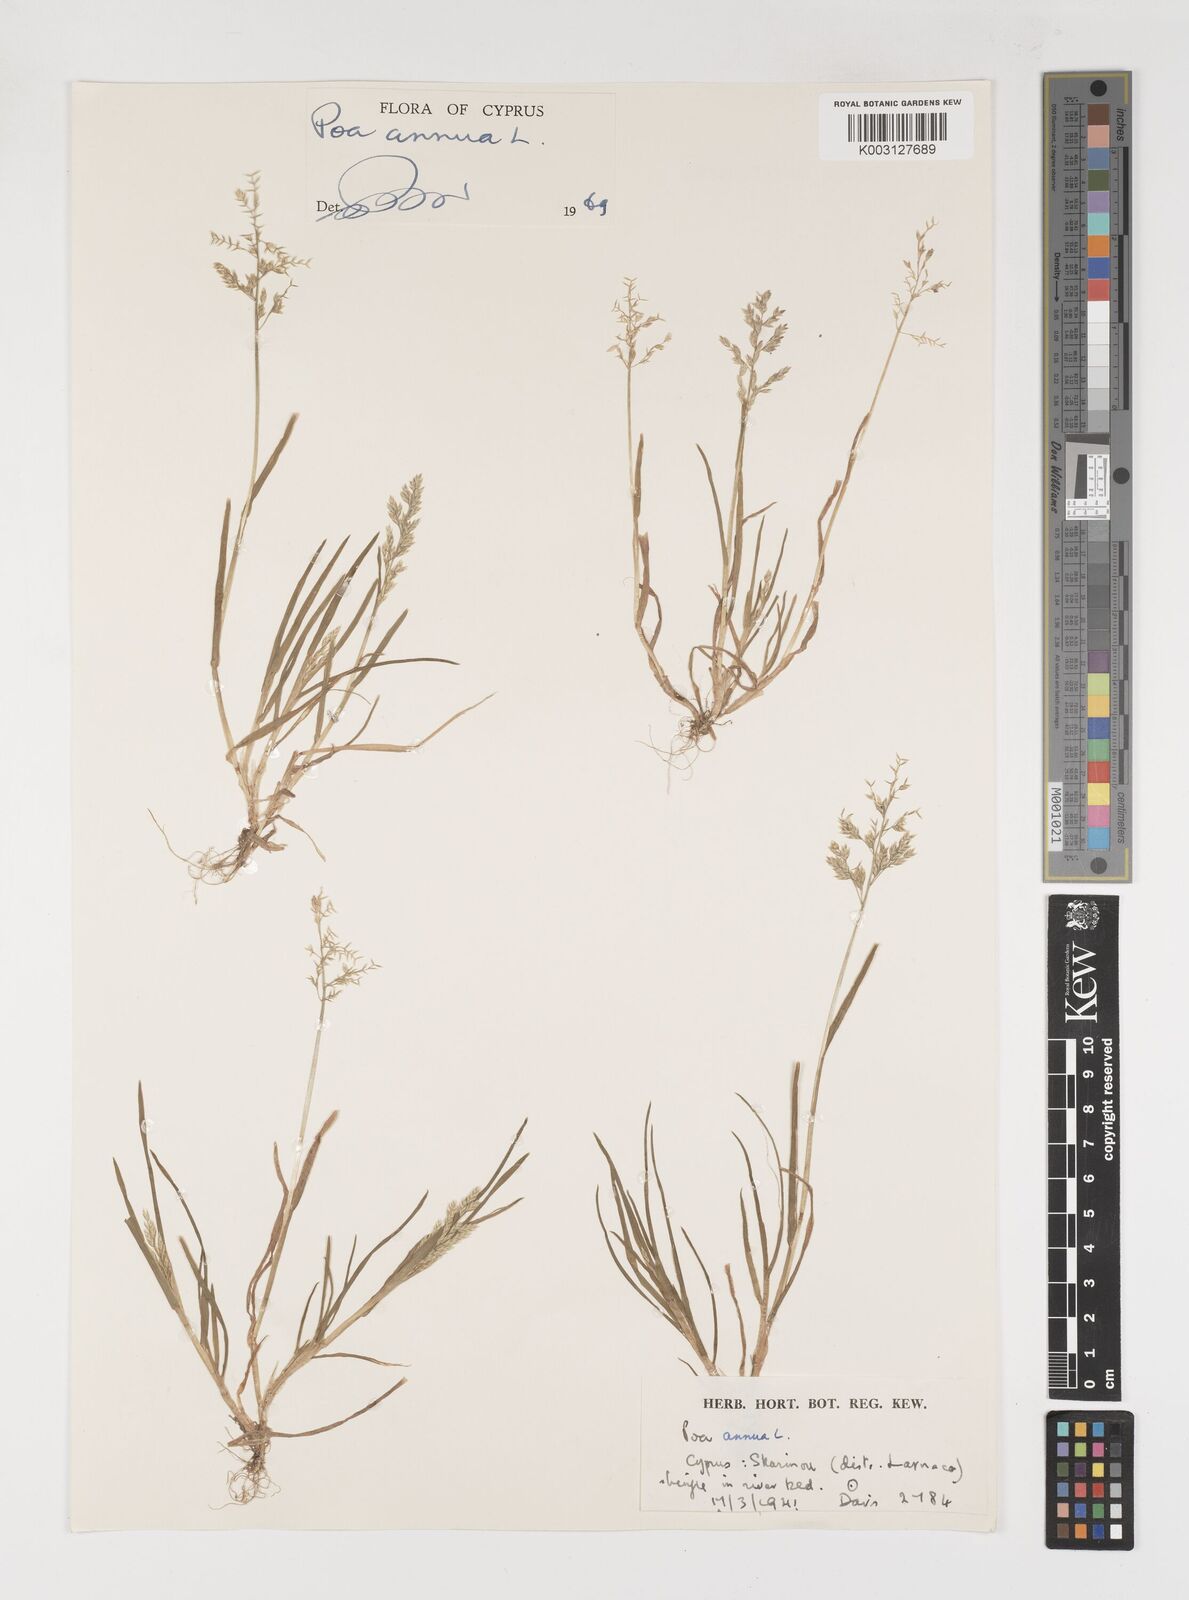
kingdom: Plantae
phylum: Tracheophyta
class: Liliopsida
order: Poales
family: Poaceae
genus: Poa
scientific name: Poa annua
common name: Annual bluegrass
